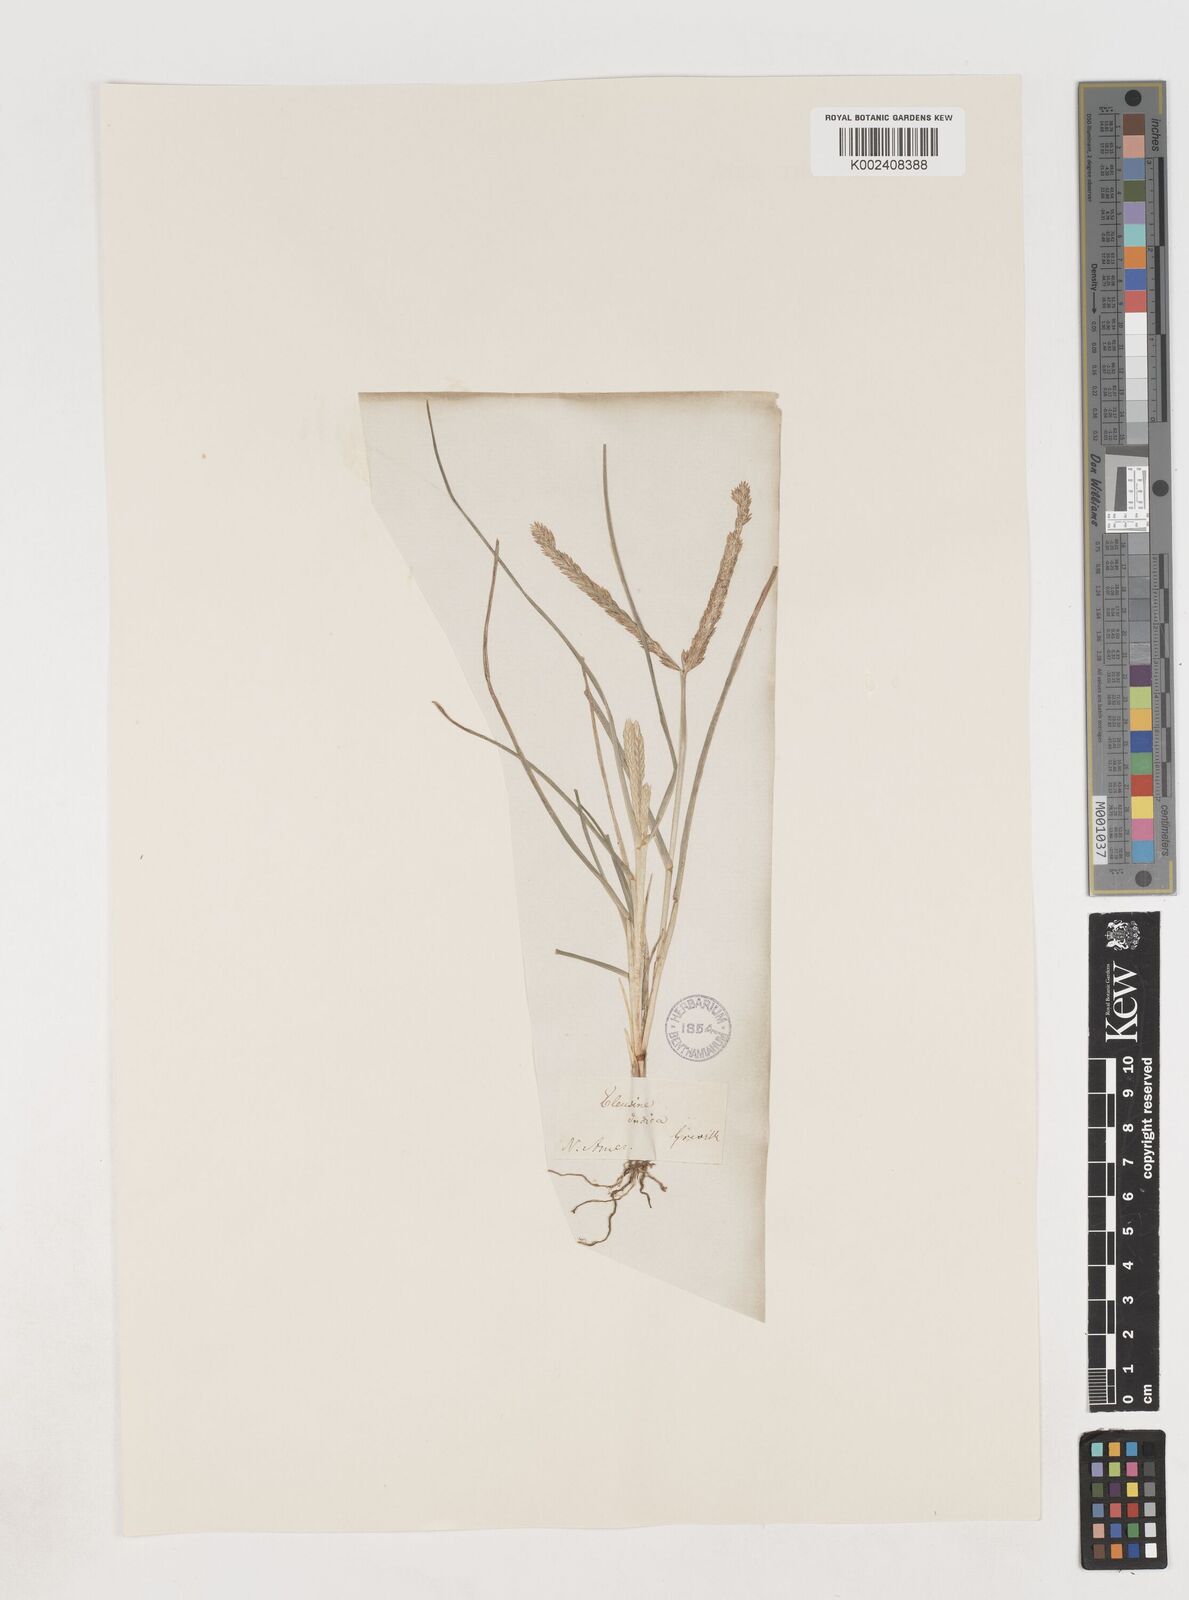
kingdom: Plantae
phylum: Tracheophyta
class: Liliopsida
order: Poales
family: Poaceae
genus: Eleusine
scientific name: Eleusine indica
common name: Yard-grass
